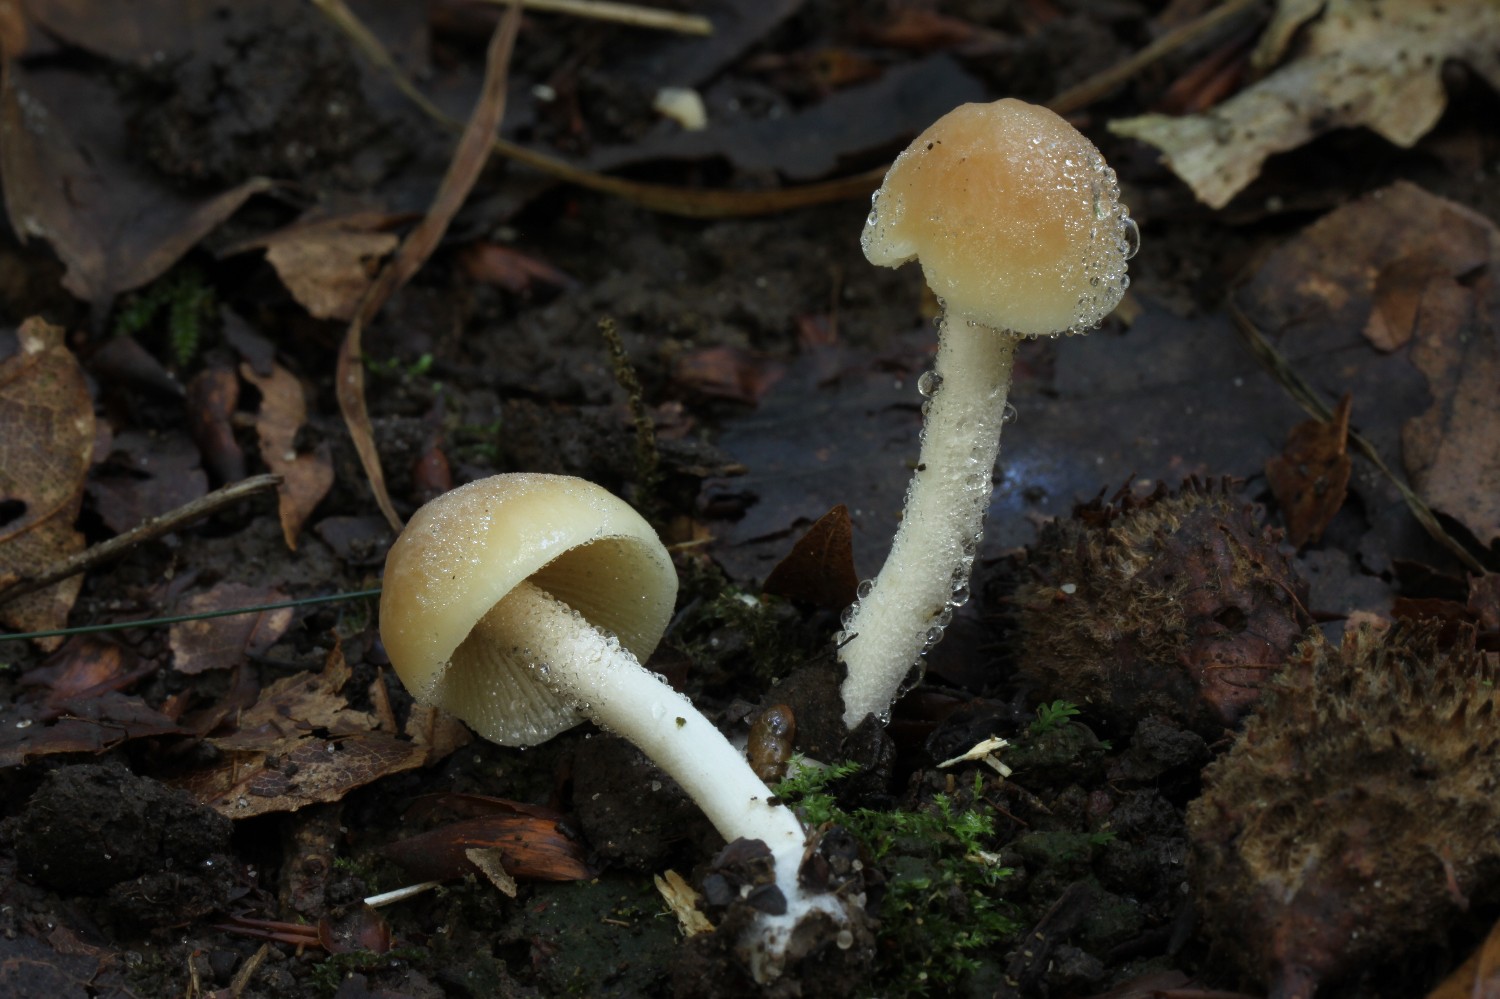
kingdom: Fungi
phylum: Basidiomycota
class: Agaricomycetes
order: Agaricales
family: Bolbitiaceae
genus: Conocybe
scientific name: Conocybe striipes
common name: knippe-dansehat
